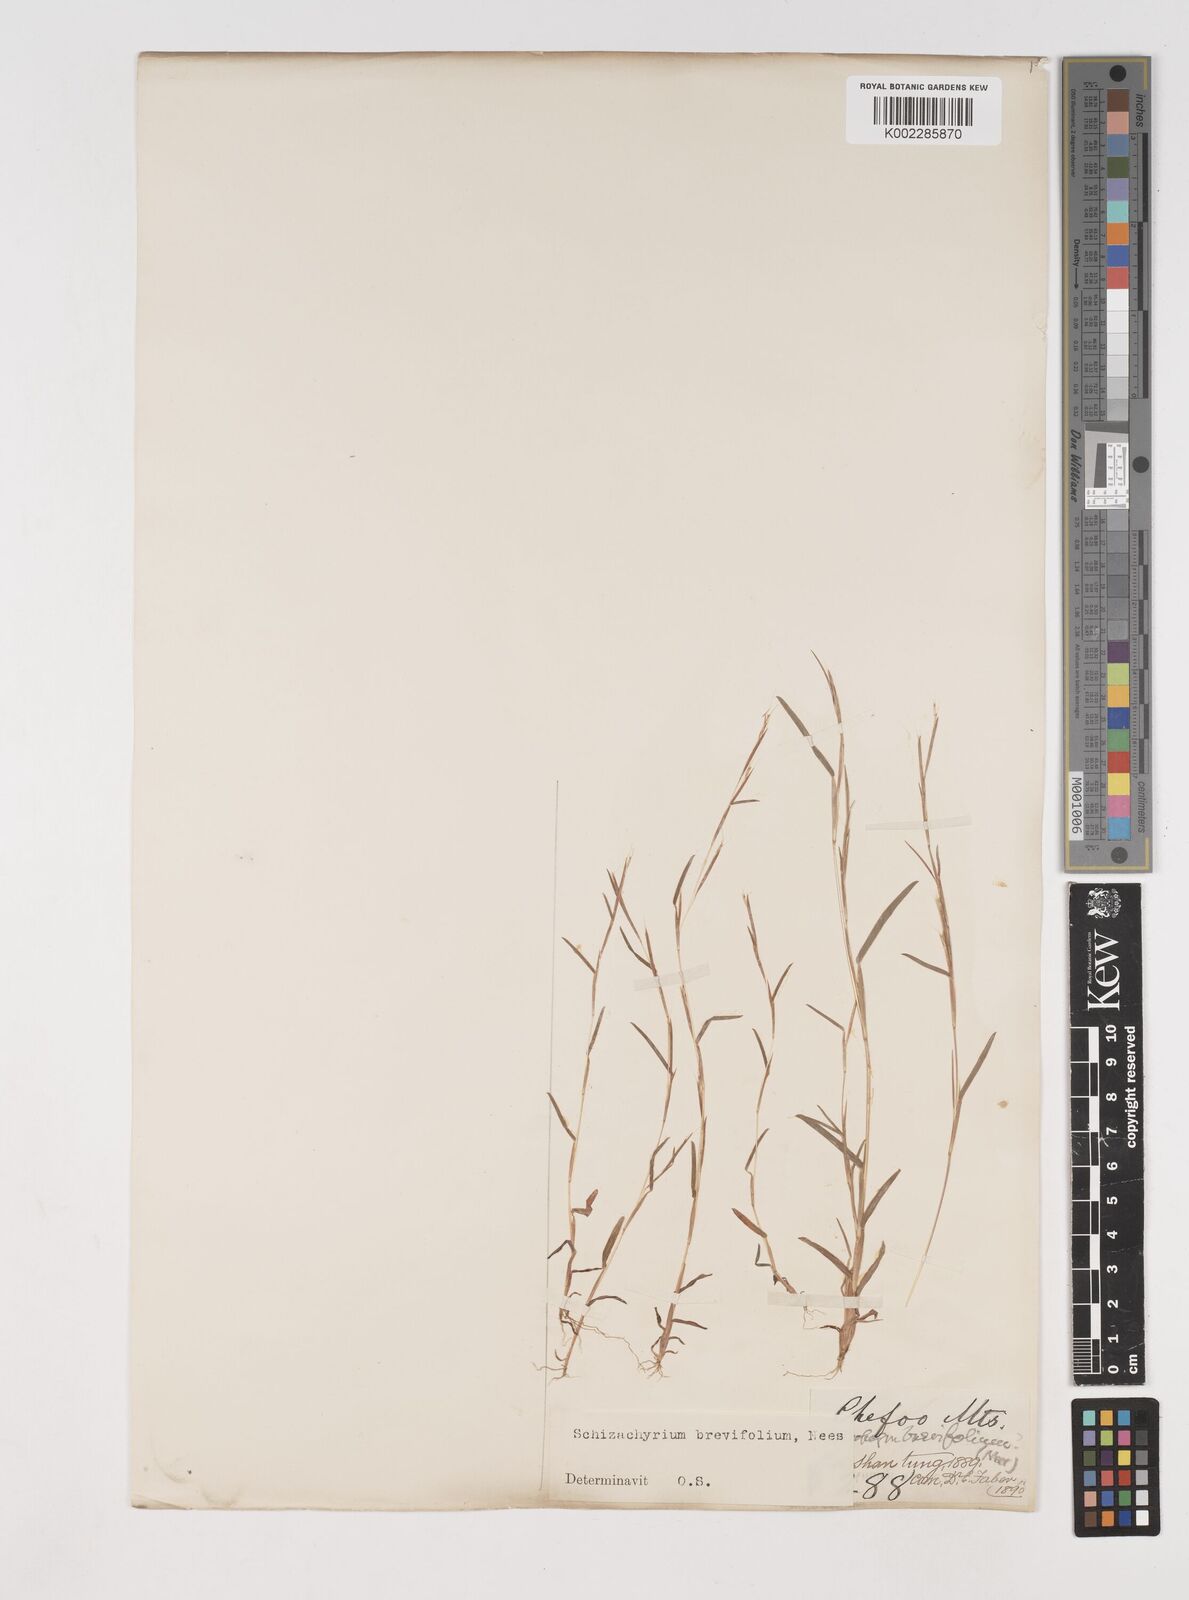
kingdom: Plantae
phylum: Tracheophyta
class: Liliopsida
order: Poales
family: Poaceae
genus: Schizachyrium
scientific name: Schizachyrium brevifolium
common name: Serillo dulce
